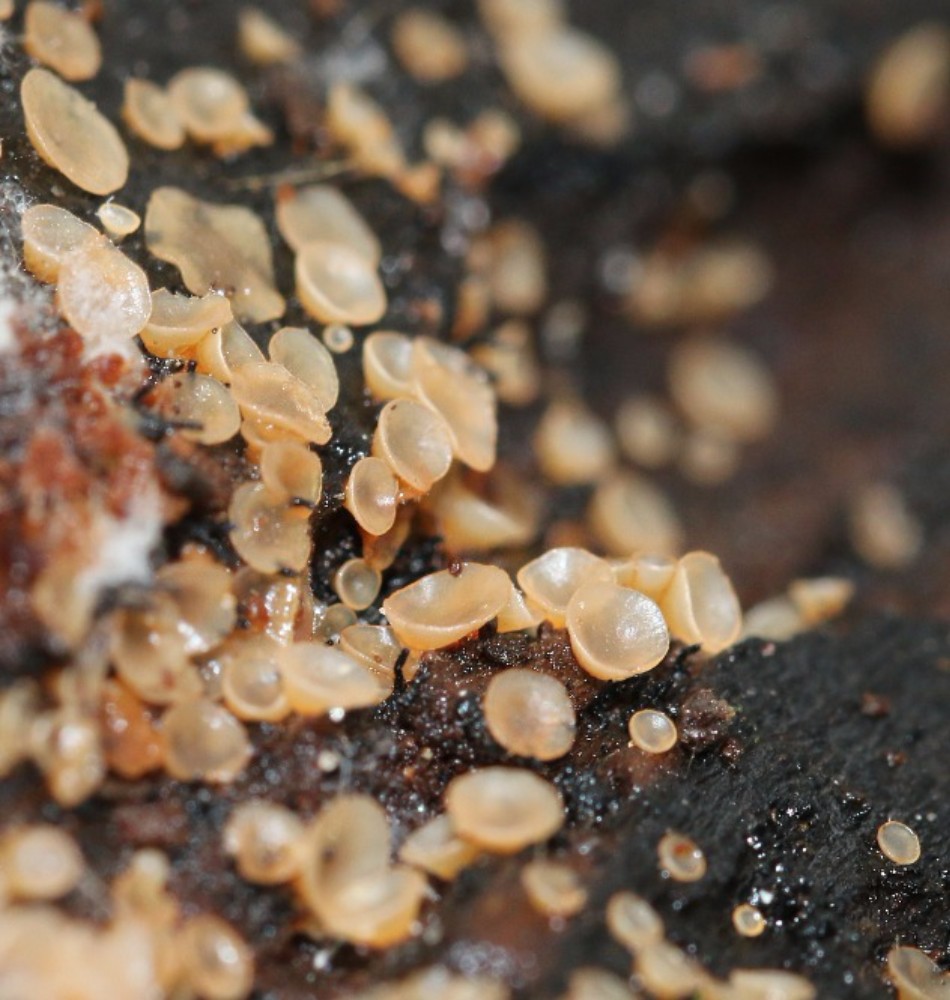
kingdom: Fungi
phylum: Ascomycota
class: Orbiliomycetes
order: Orbiliales
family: Orbiliaceae
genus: Hyalorbilia
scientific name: Hyalorbilia
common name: voksskive
